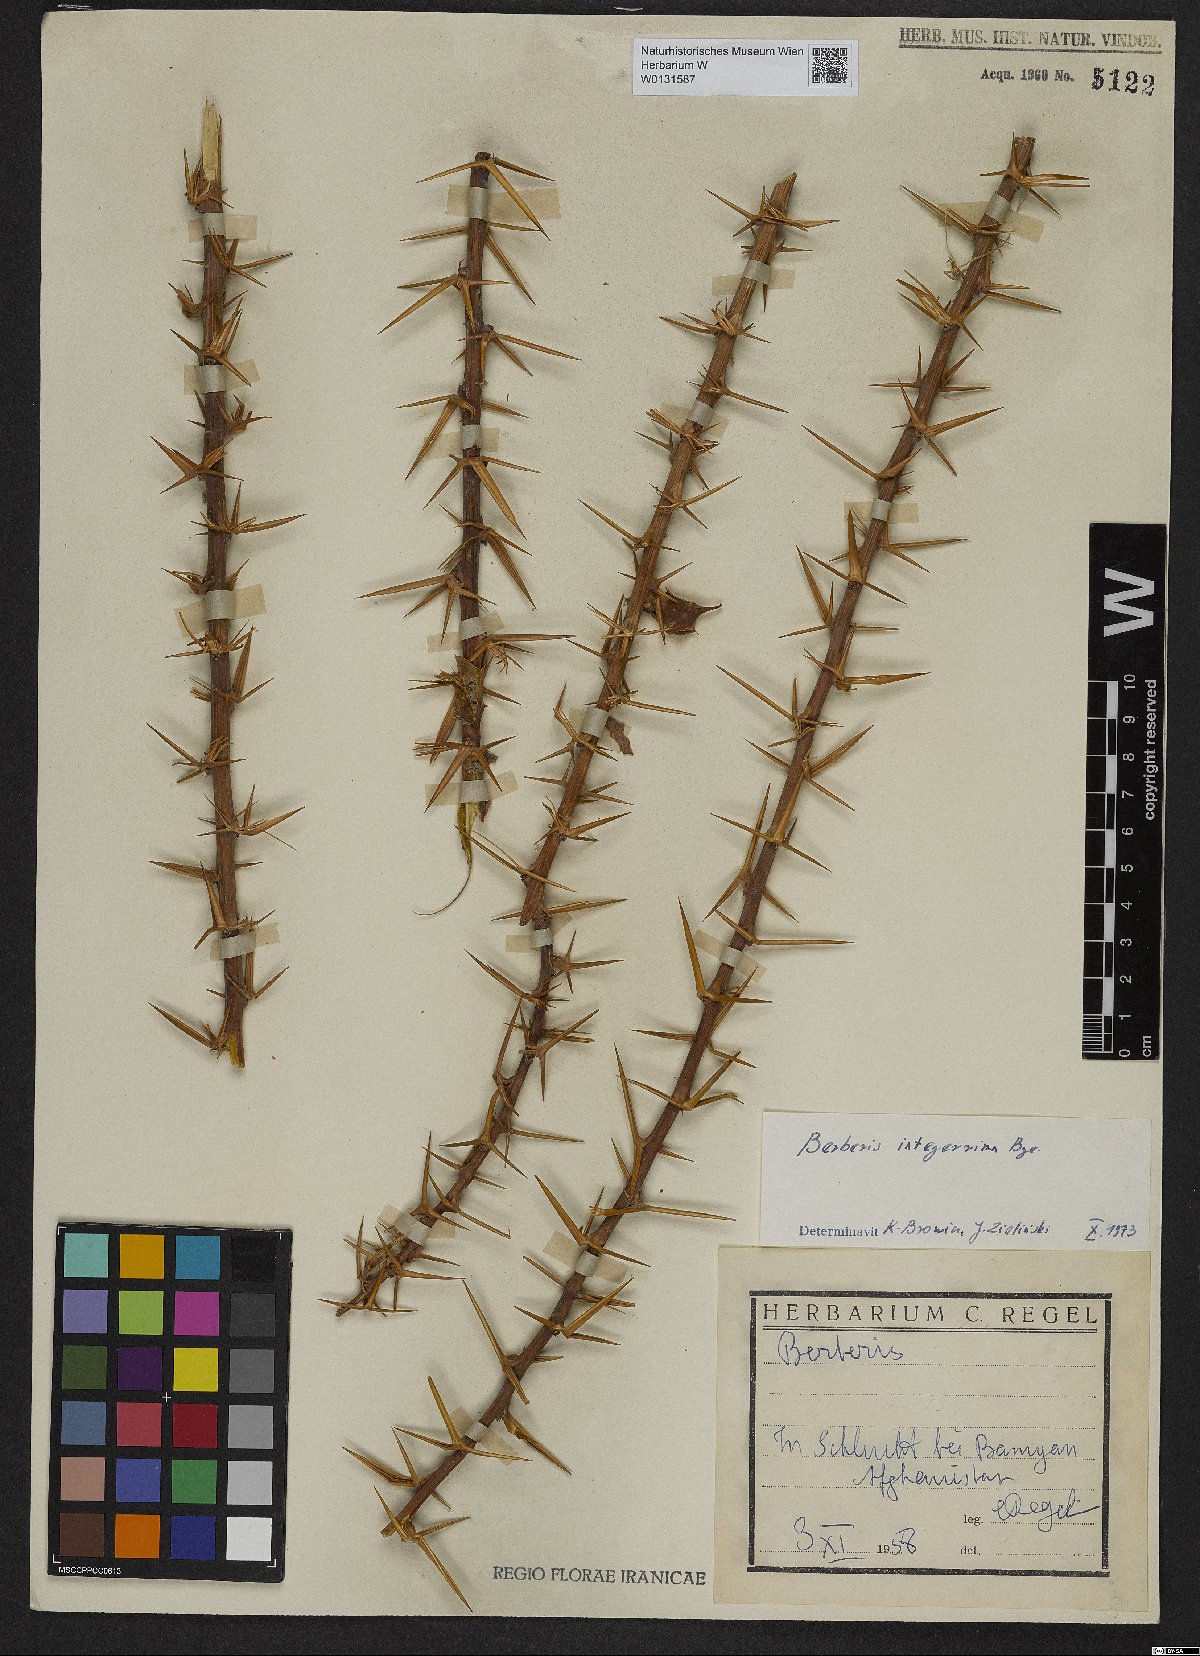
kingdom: Plantae
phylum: Tracheophyta
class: Magnoliopsida
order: Ranunculales
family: Berberidaceae
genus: Berberis
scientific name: Berberis integerrima
